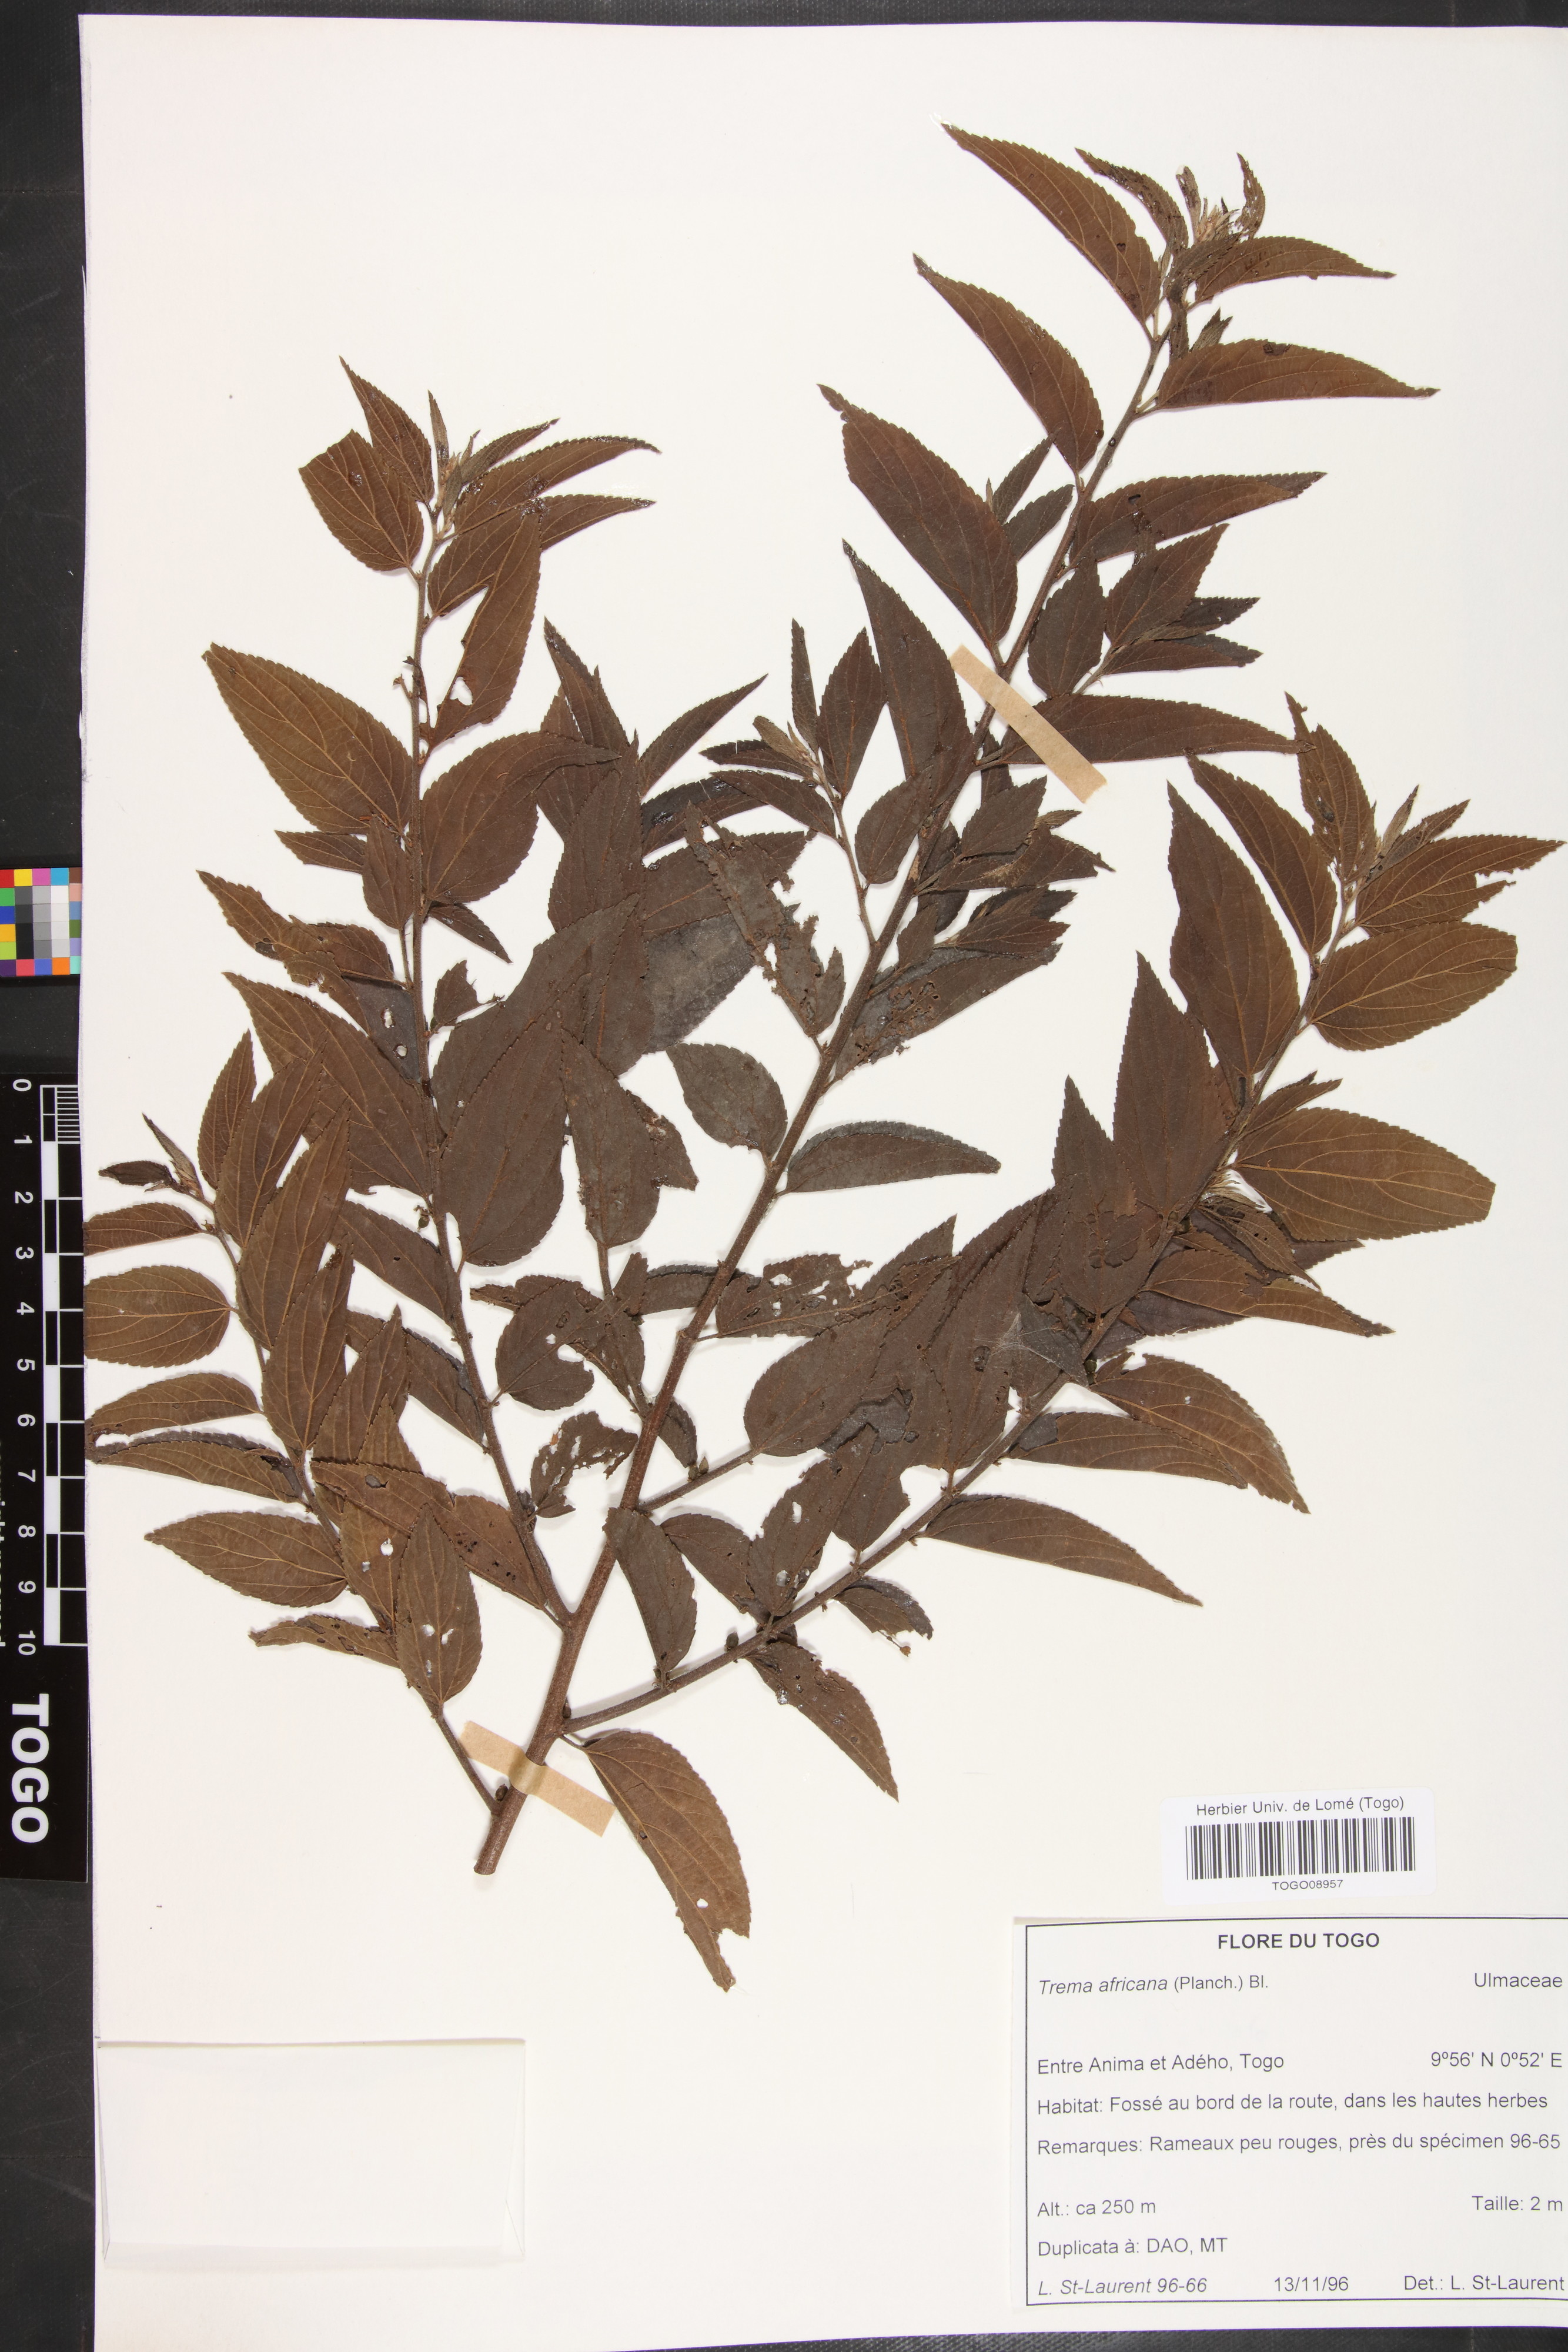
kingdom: Plantae
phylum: Tracheophyta
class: Magnoliopsida
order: Rosales
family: Cannabaceae
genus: Trema
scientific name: Trema orientale
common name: Indian charcoal tree
